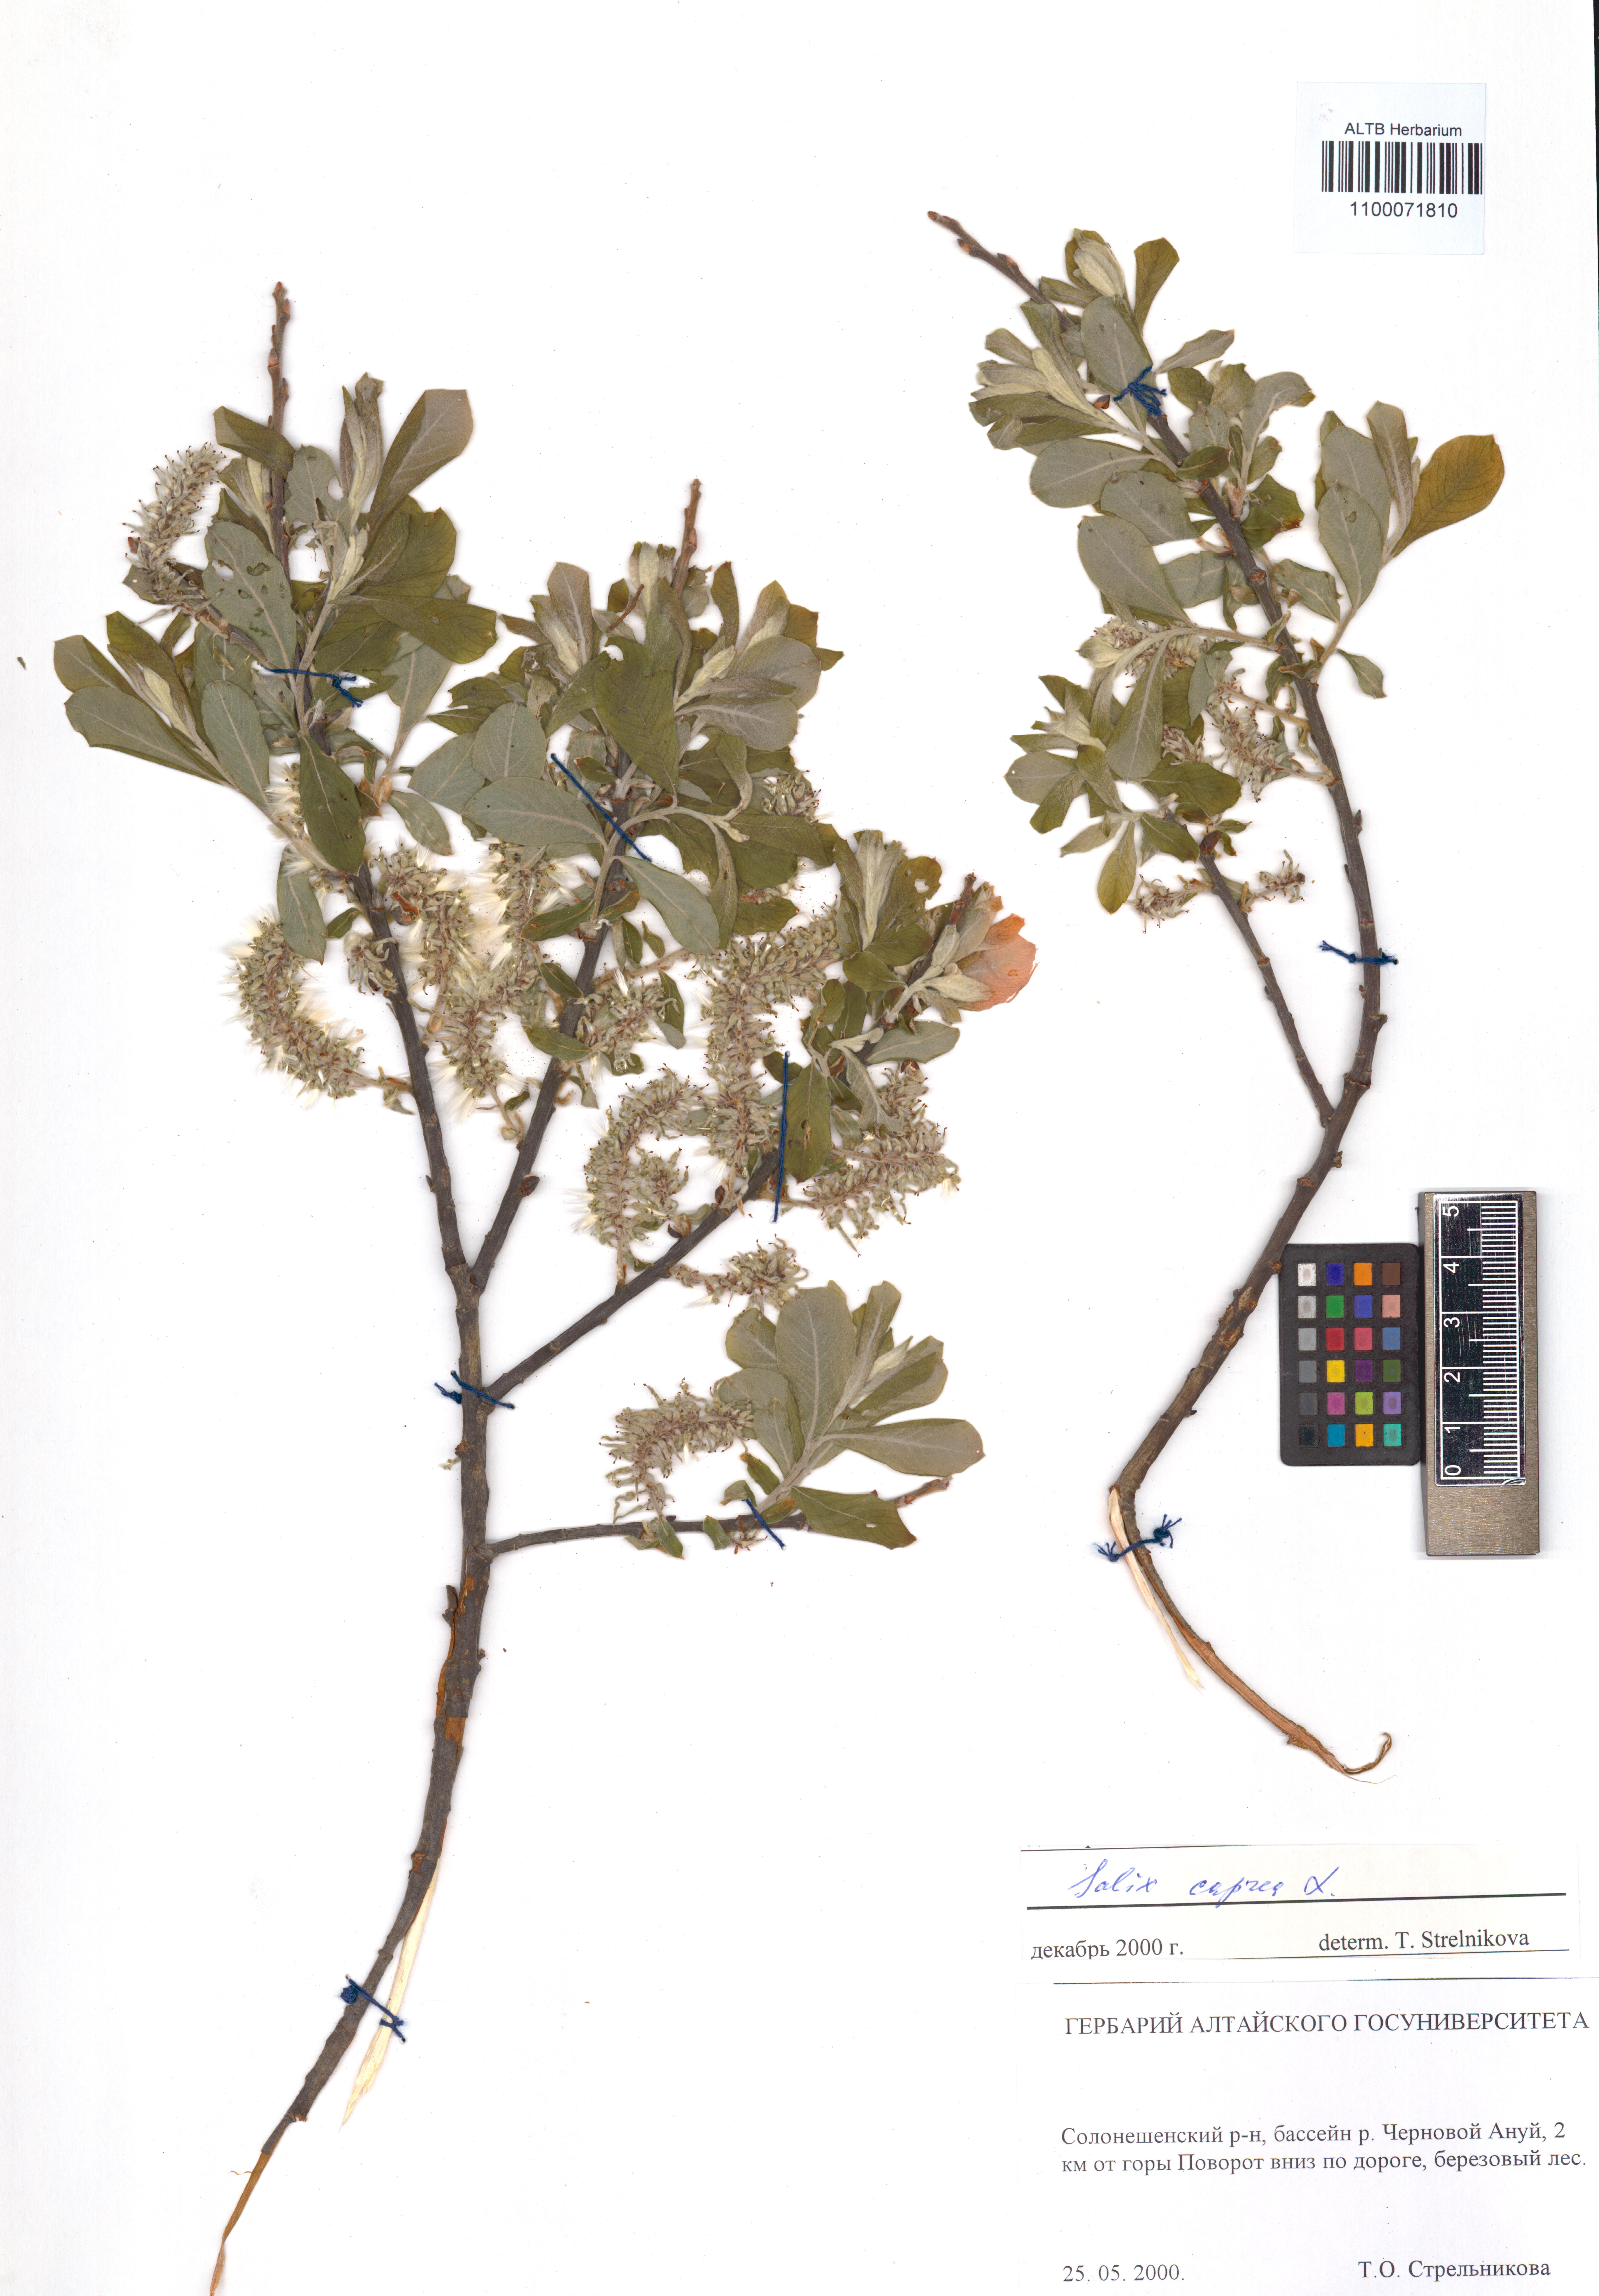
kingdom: Plantae
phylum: Tracheophyta
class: Magnoliopsida
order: Malpighiales
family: Salicaceae
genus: Salix
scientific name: Salix caprea
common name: Goat willow
